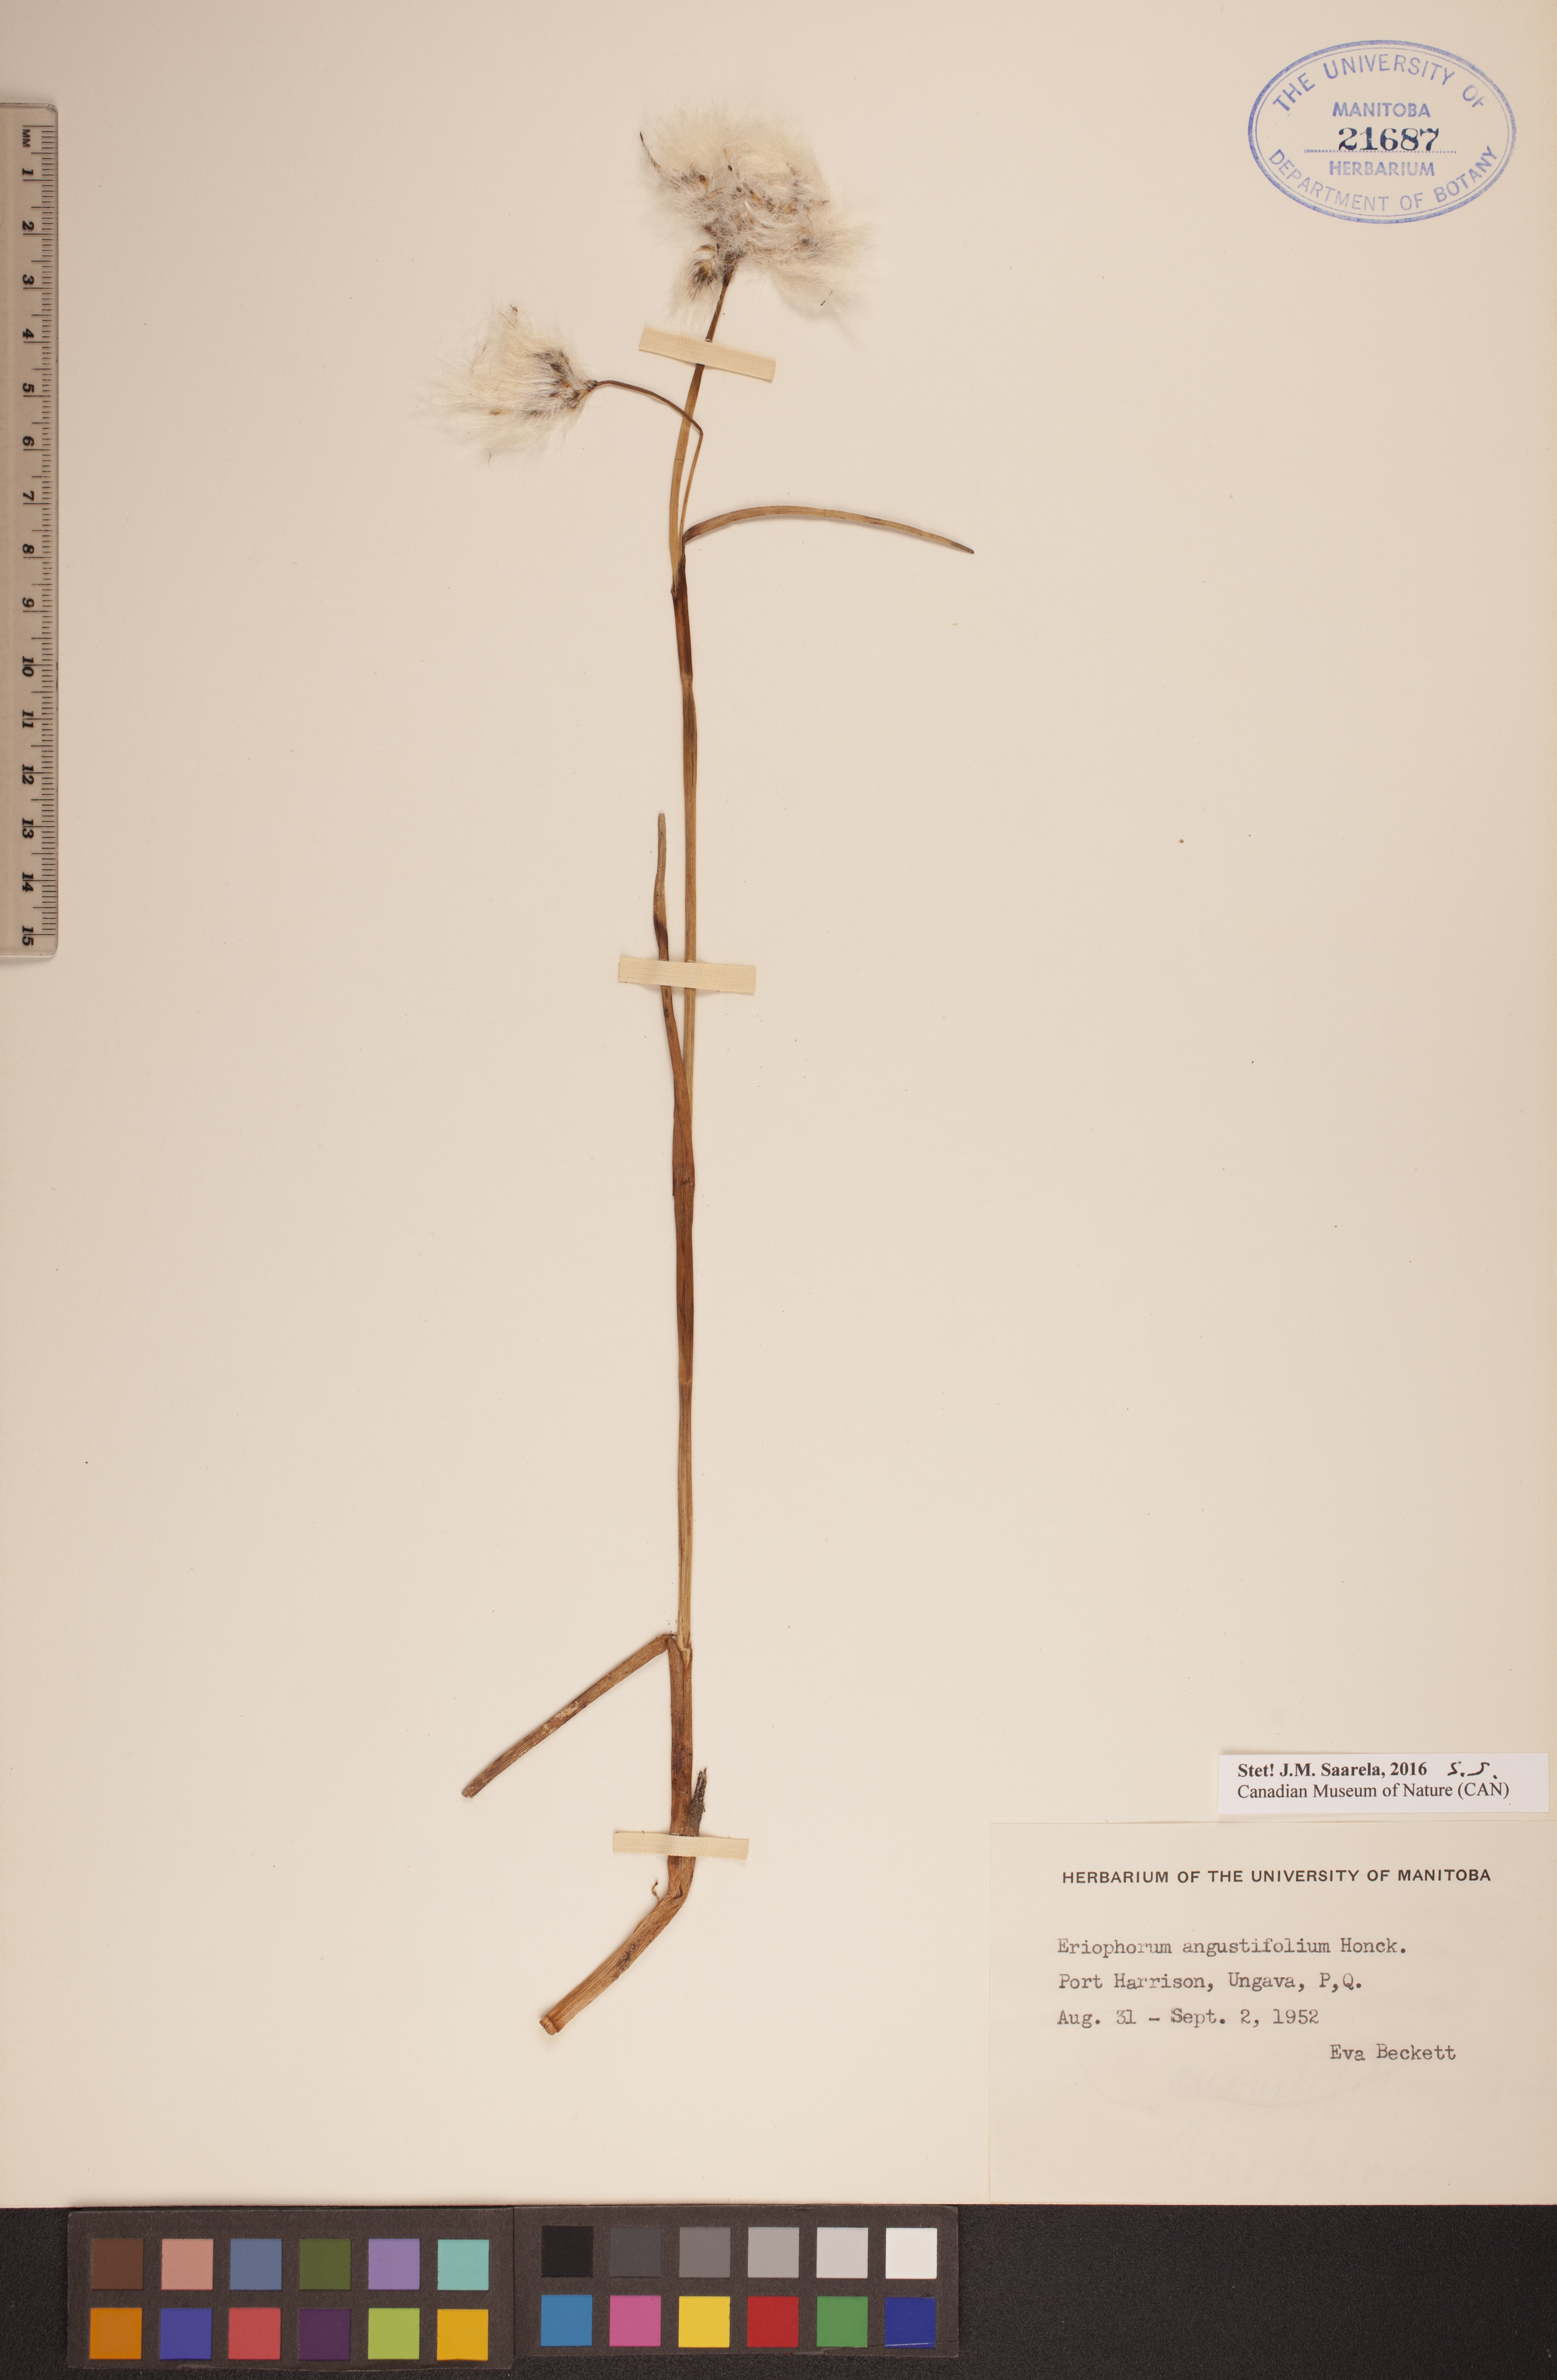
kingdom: Plantae
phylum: Tracheophyta
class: Liliopsida
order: Poales
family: Cyperaceae
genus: Eriophorum
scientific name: Eriophorum angustifolium
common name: Common cottongrass
